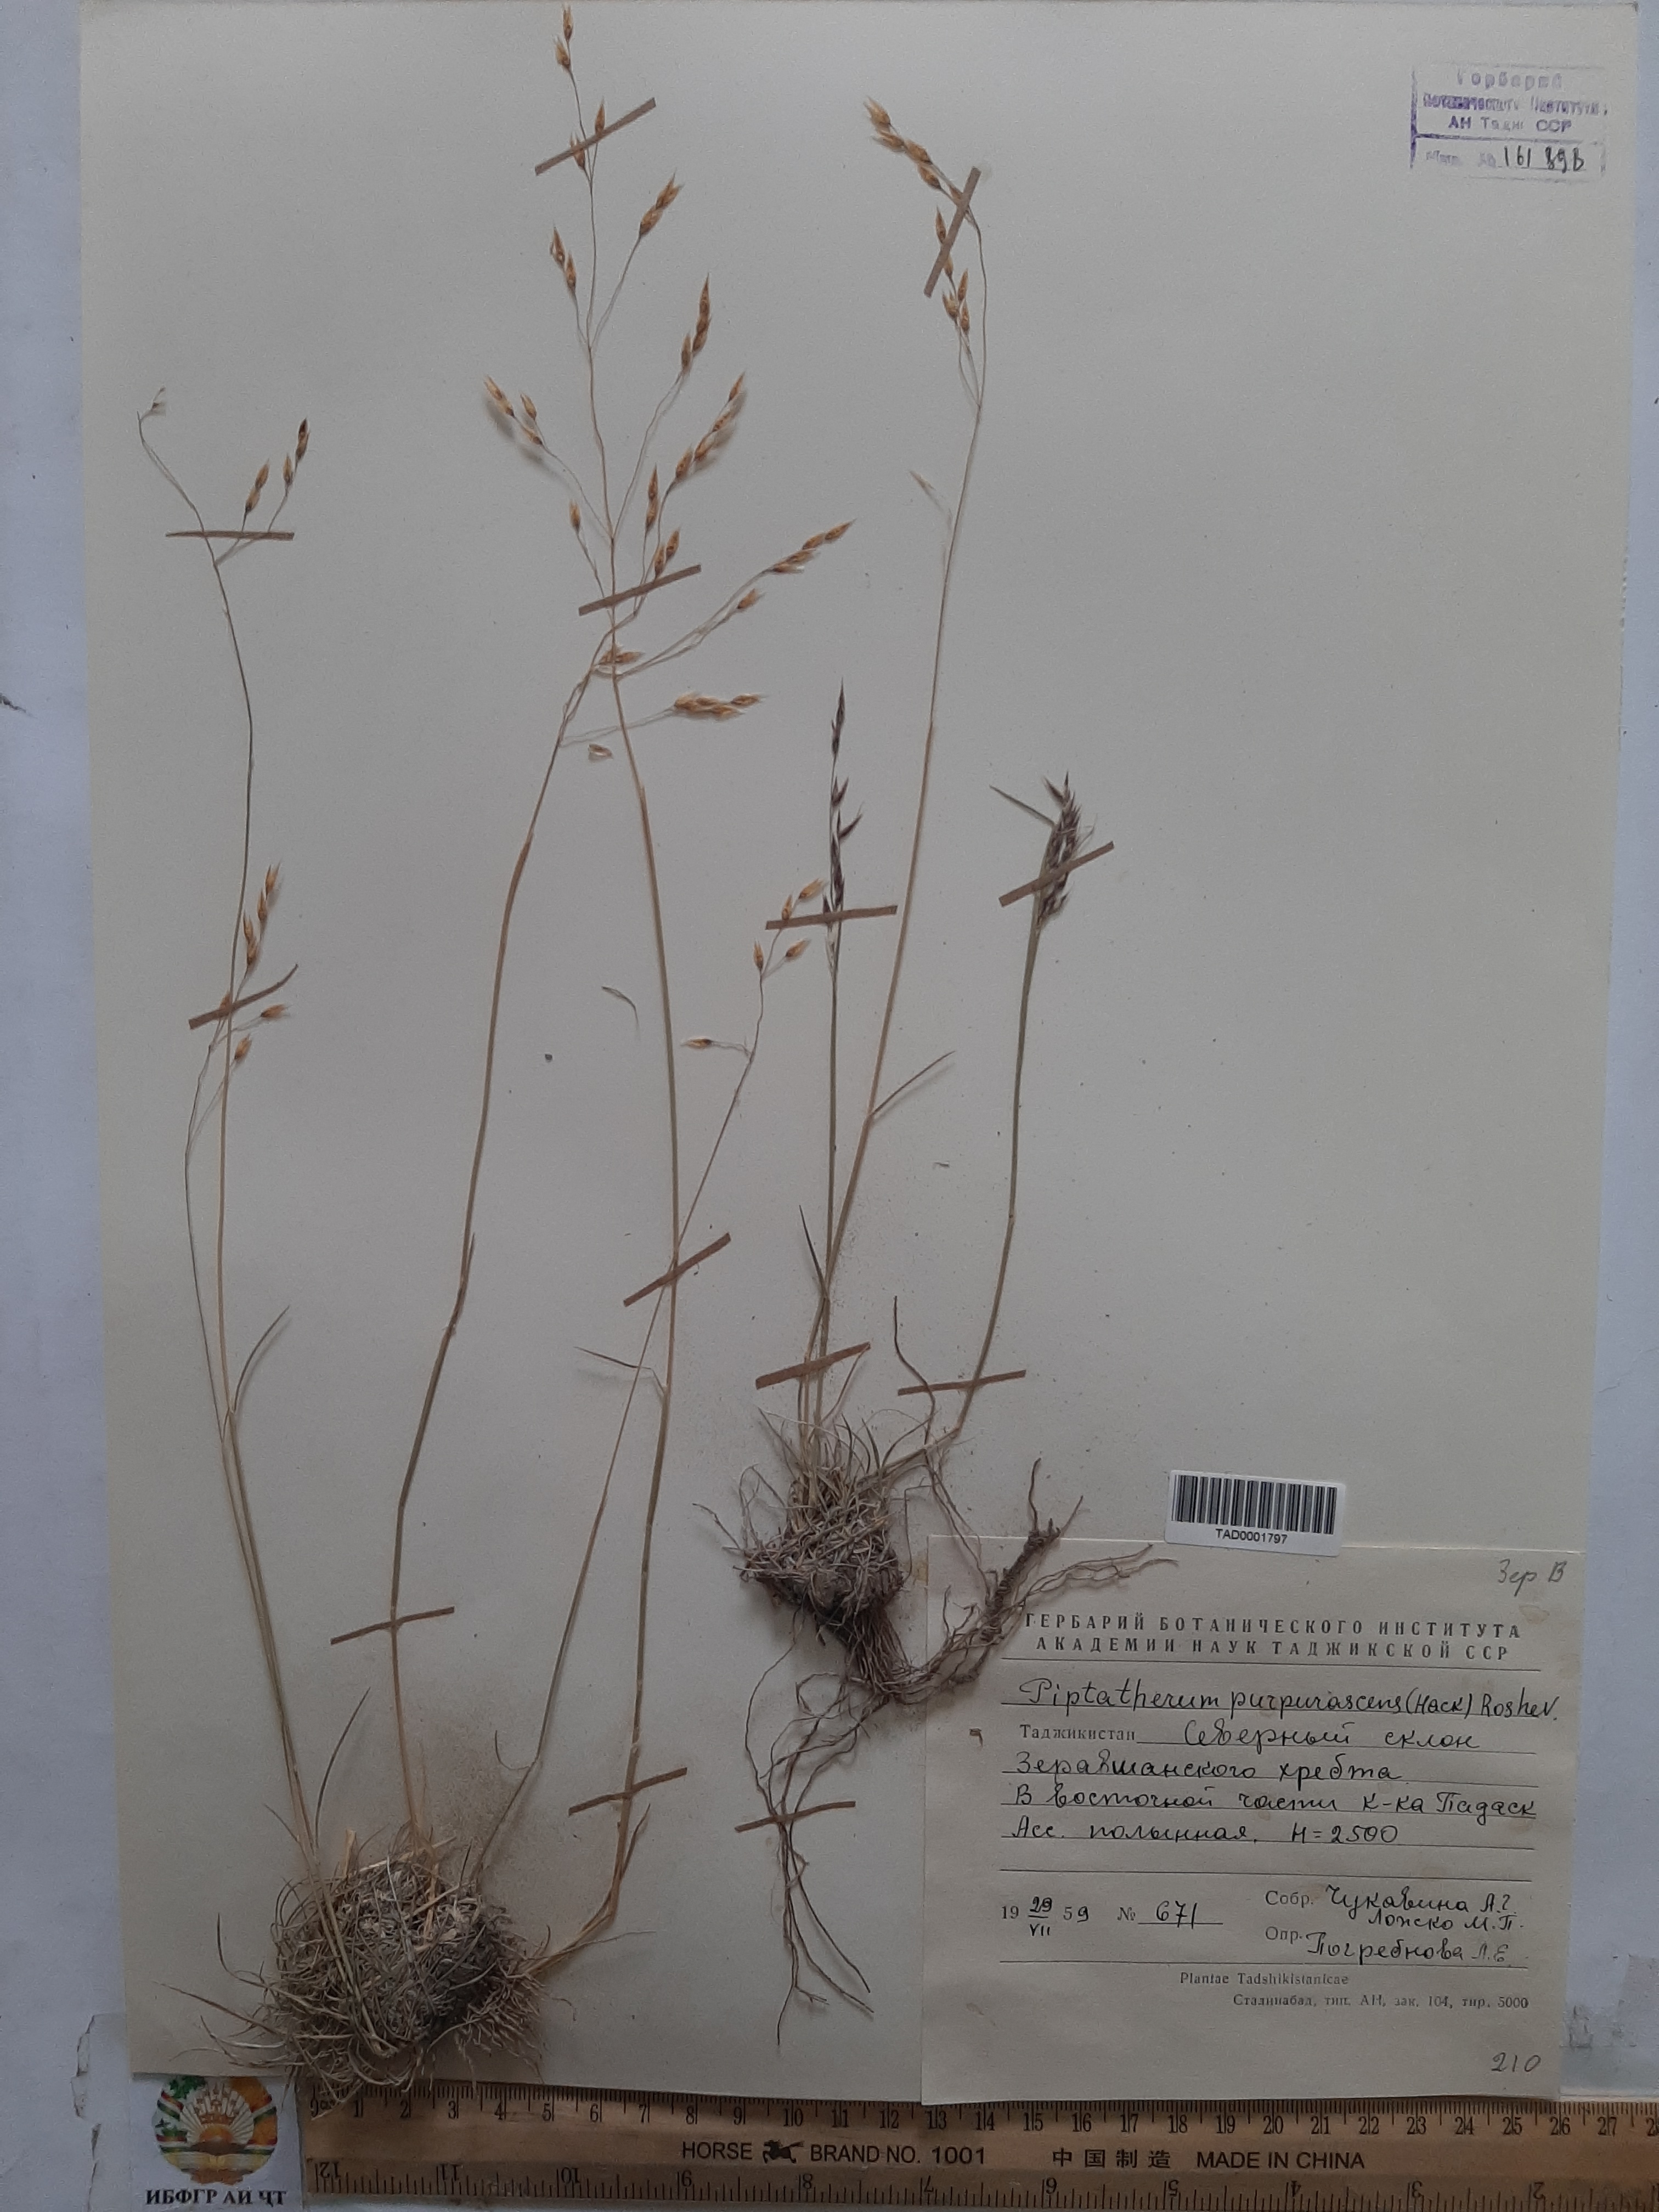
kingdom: Plantae
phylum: Tracheophyta
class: Liliopsida
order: Poales
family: Poaceae
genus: Piptatherum
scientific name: Piptatherum purpurascens
